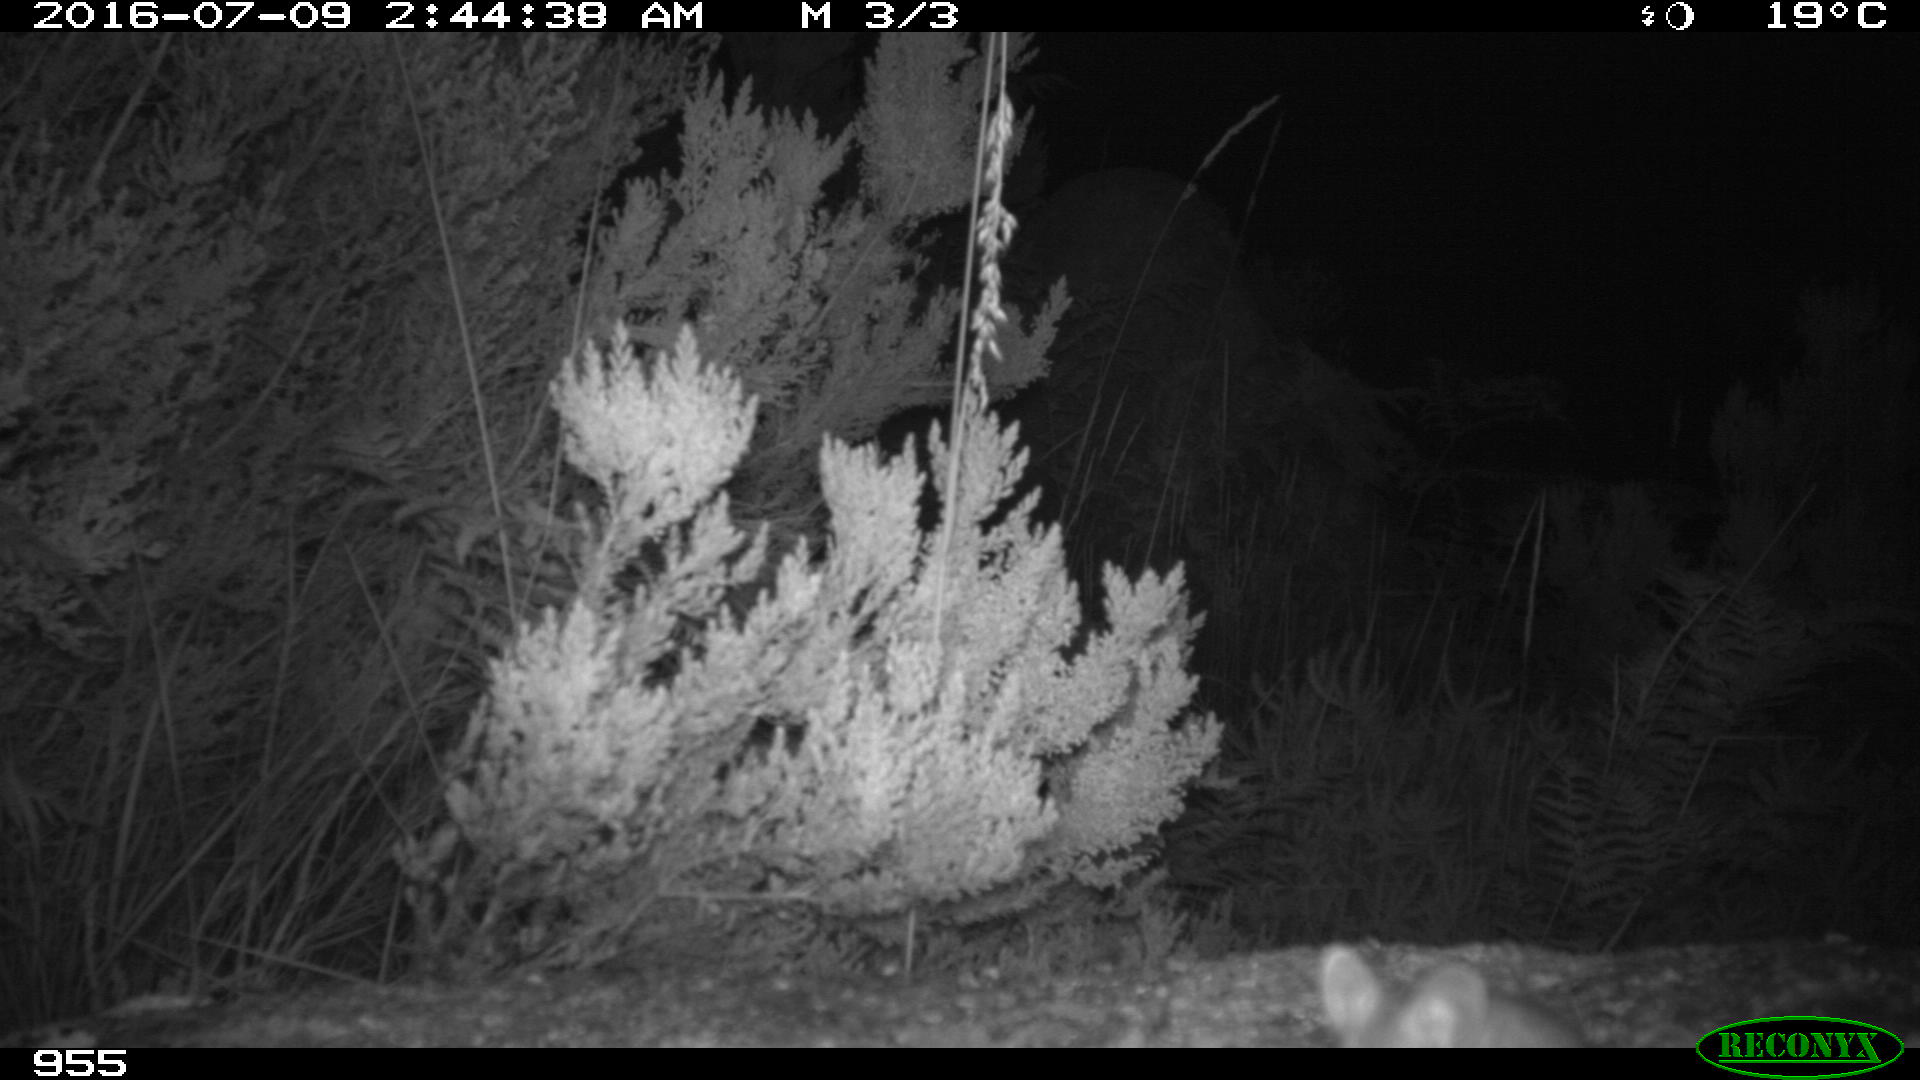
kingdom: Animalia
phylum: Chordata
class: Mammalia
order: Rodentia
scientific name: Rodentia
